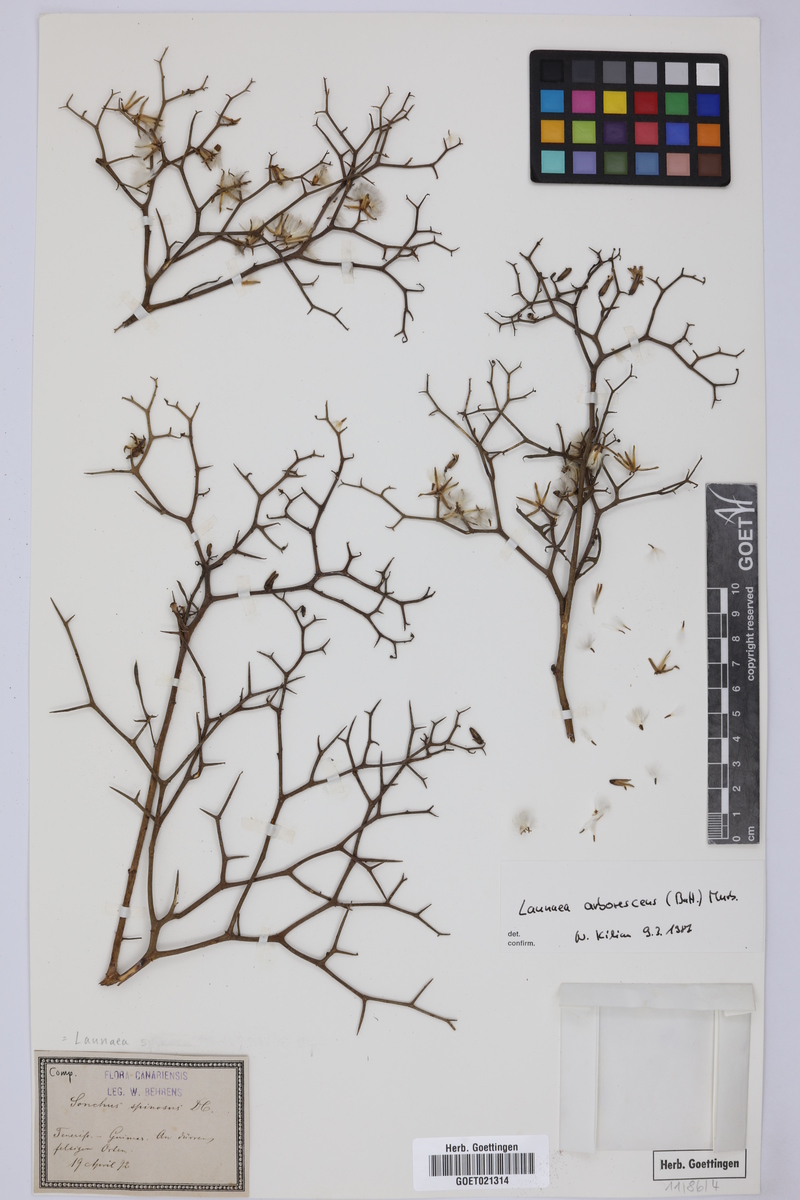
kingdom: Plantae
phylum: Tracheophyta
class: Magnoliopsida
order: Asterales
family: Asteraceae
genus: Launaea
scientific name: Launaea arborescens
